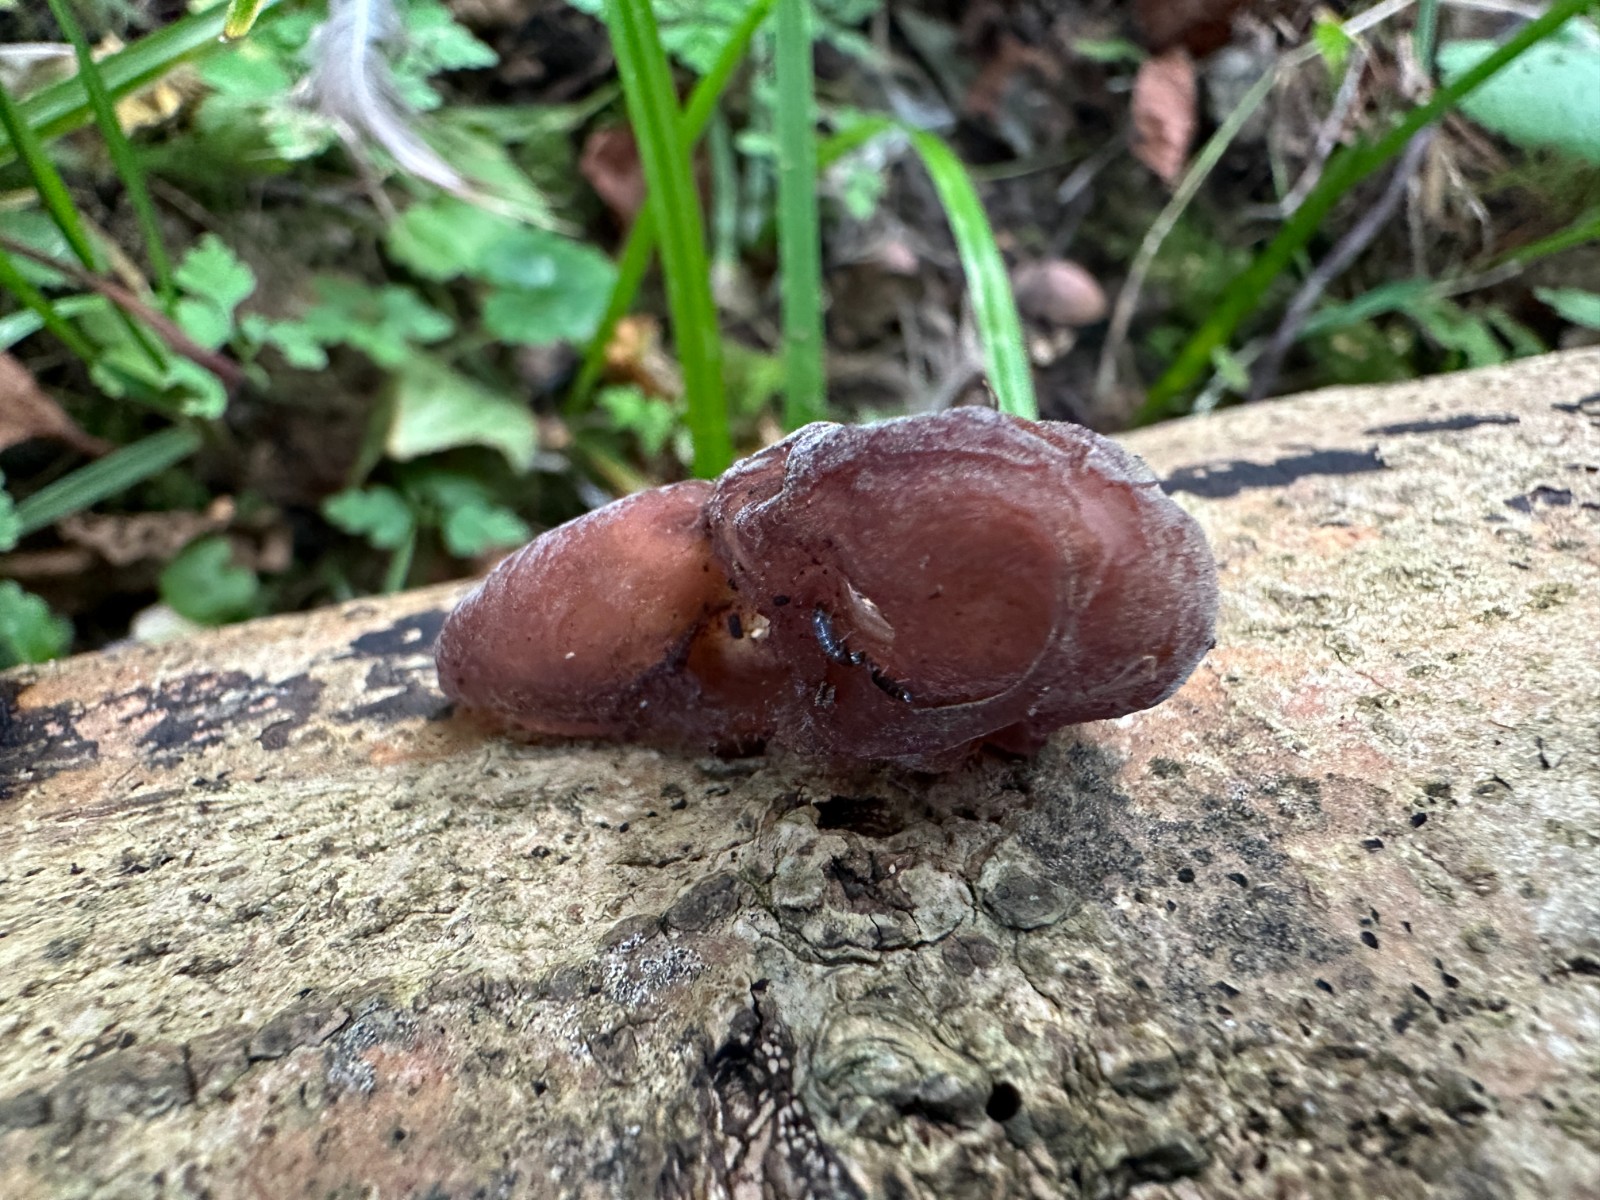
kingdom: Fungi
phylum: Basidiomycota
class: Agaricomycetes
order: Auriculariales
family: Auriculariaceae
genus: Auricularia
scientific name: Auricularia auricula-judae
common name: almindelig judasøre
